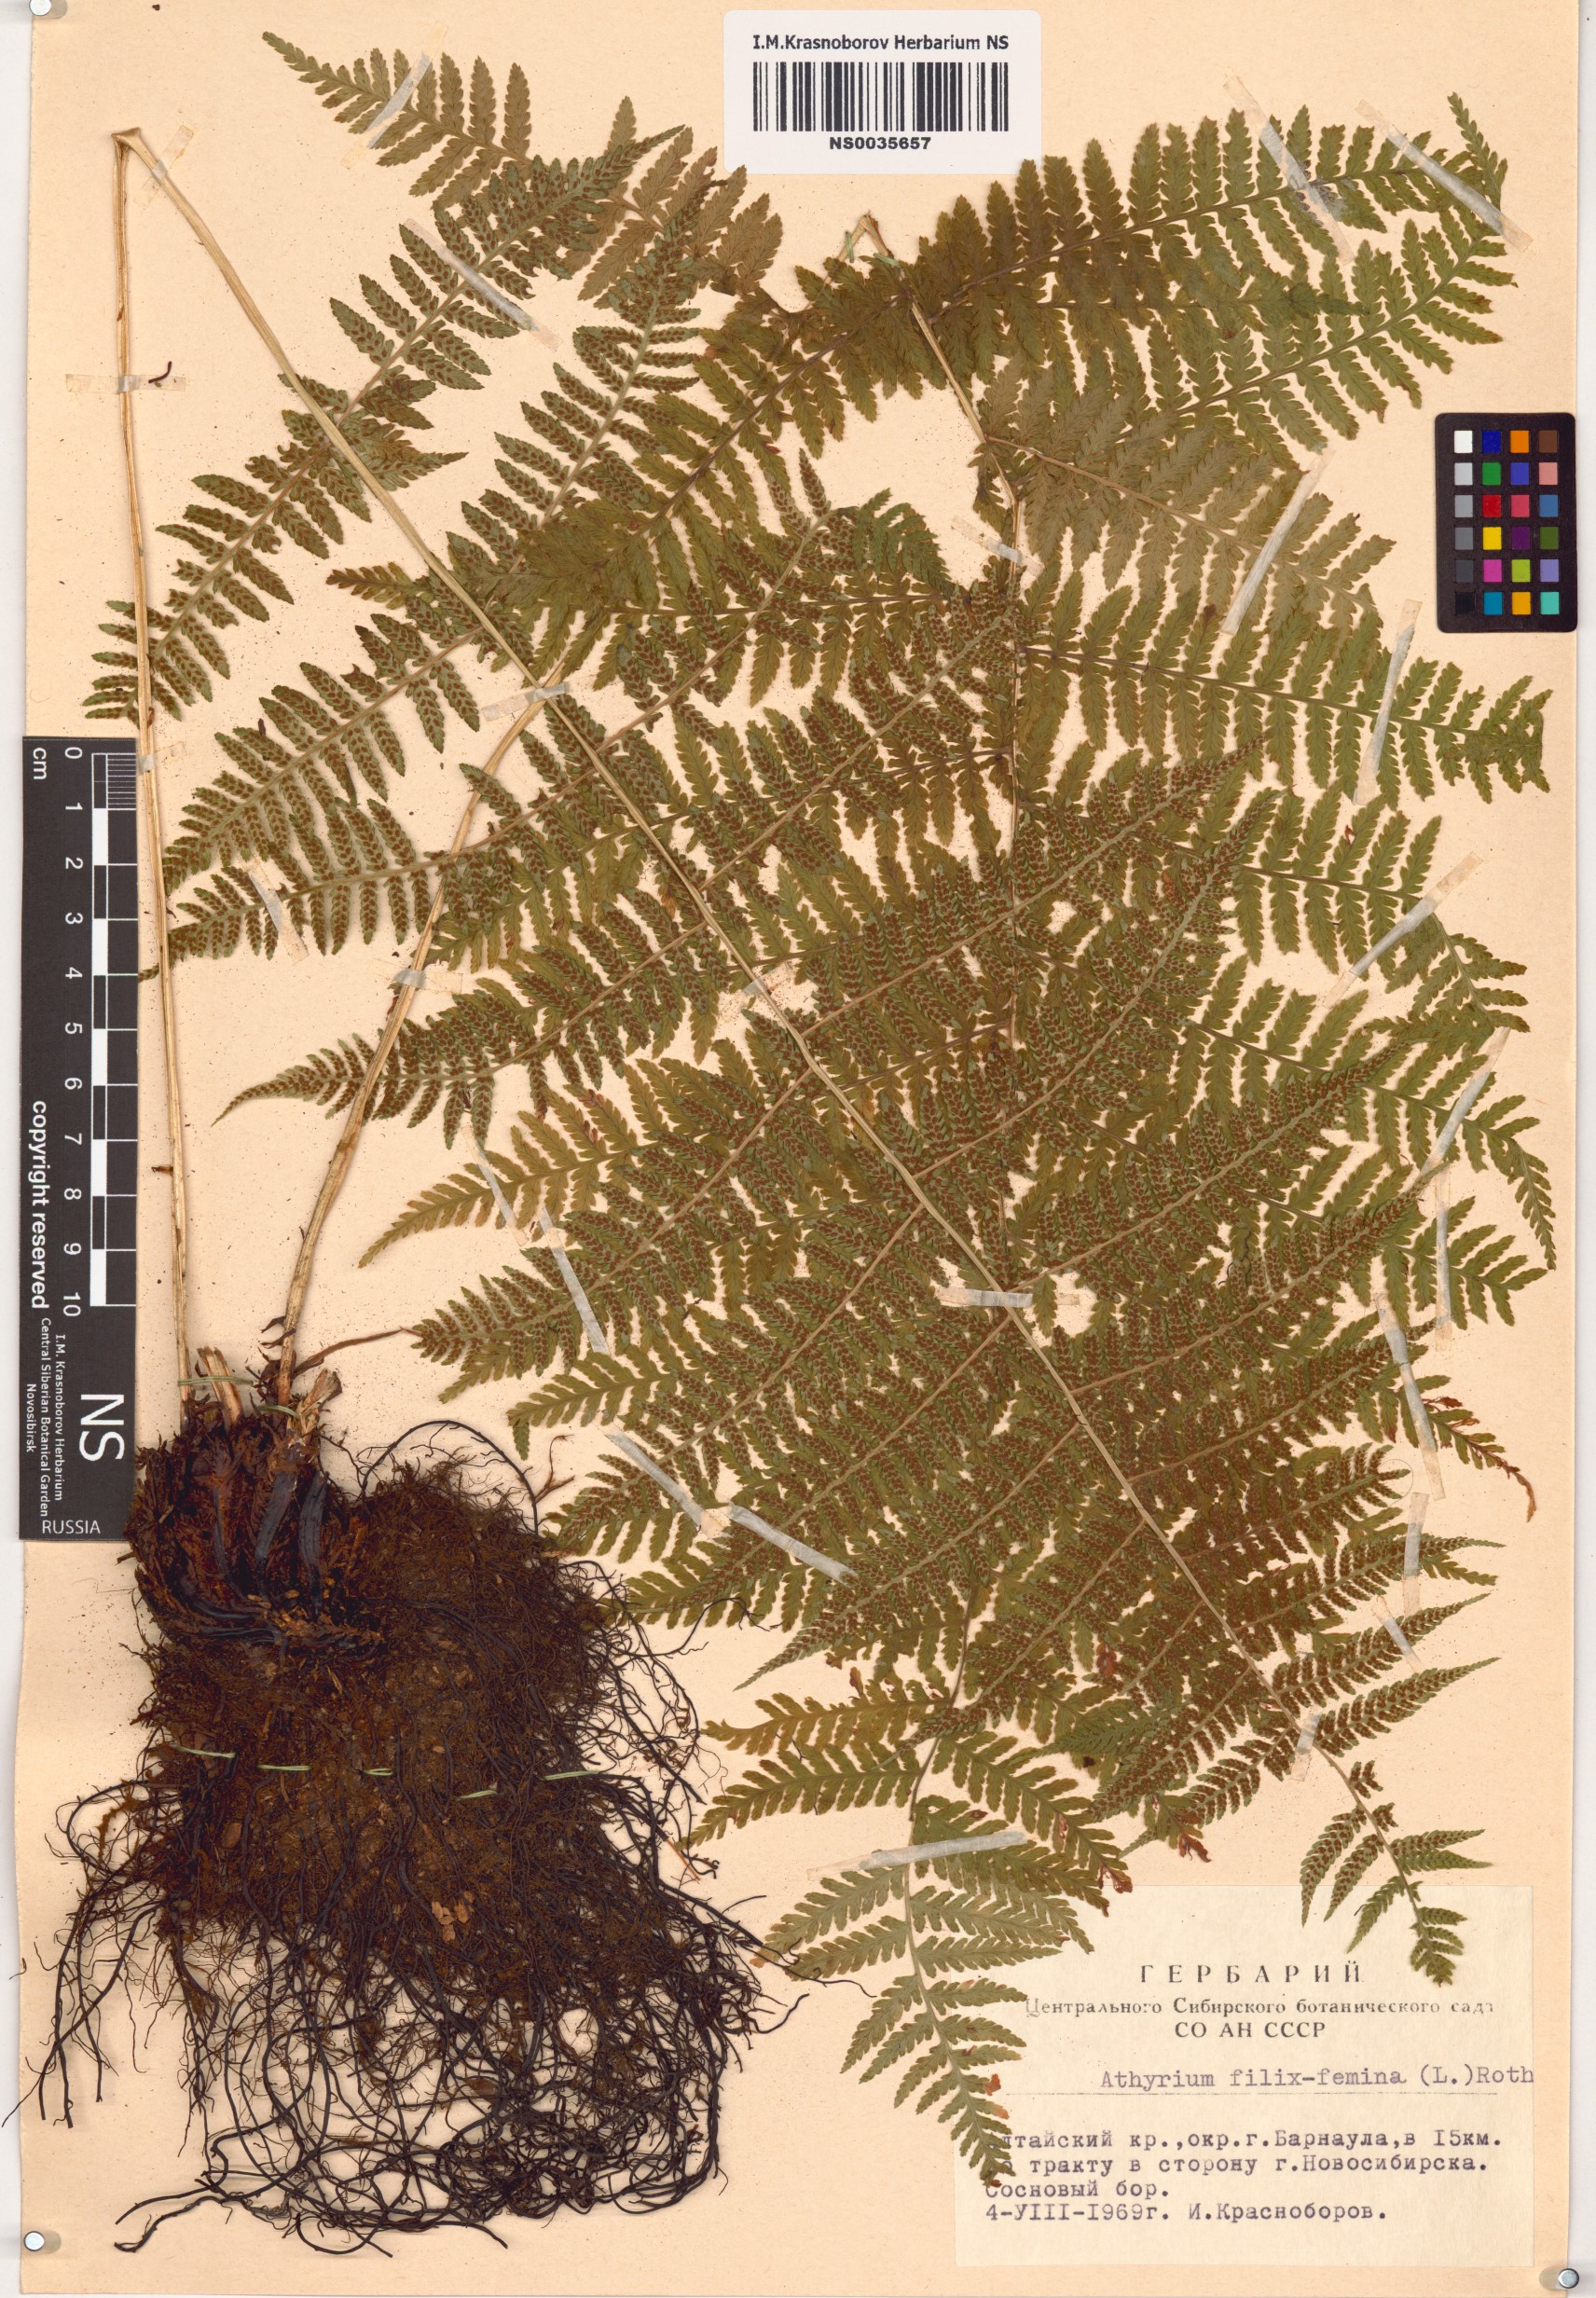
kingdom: Plantae
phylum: Tracheophyta
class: Polypodiopsida
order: Polypodiales
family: Athyriaceae
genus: Athyrium
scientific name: Athyrium filix-femina
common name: Lady fern
